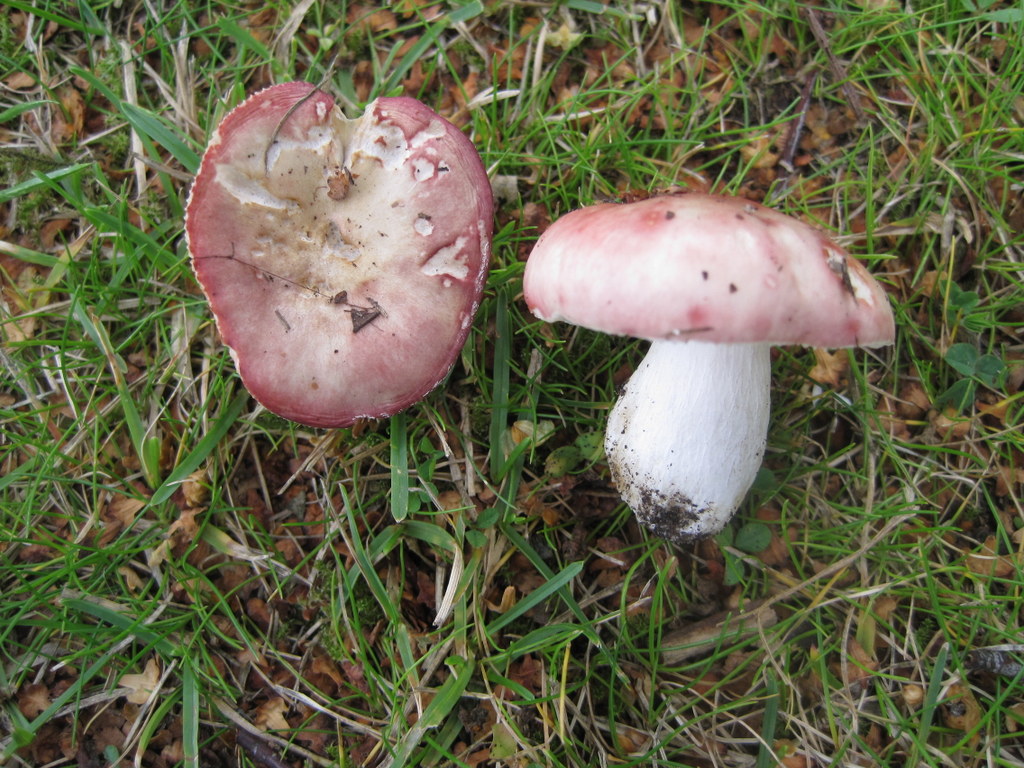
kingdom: Fungi
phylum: Basidiomycota
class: Agaricomycetes
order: Russulales
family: Russulaceae
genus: Russula
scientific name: Russula depallens
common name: falmende skørhat
